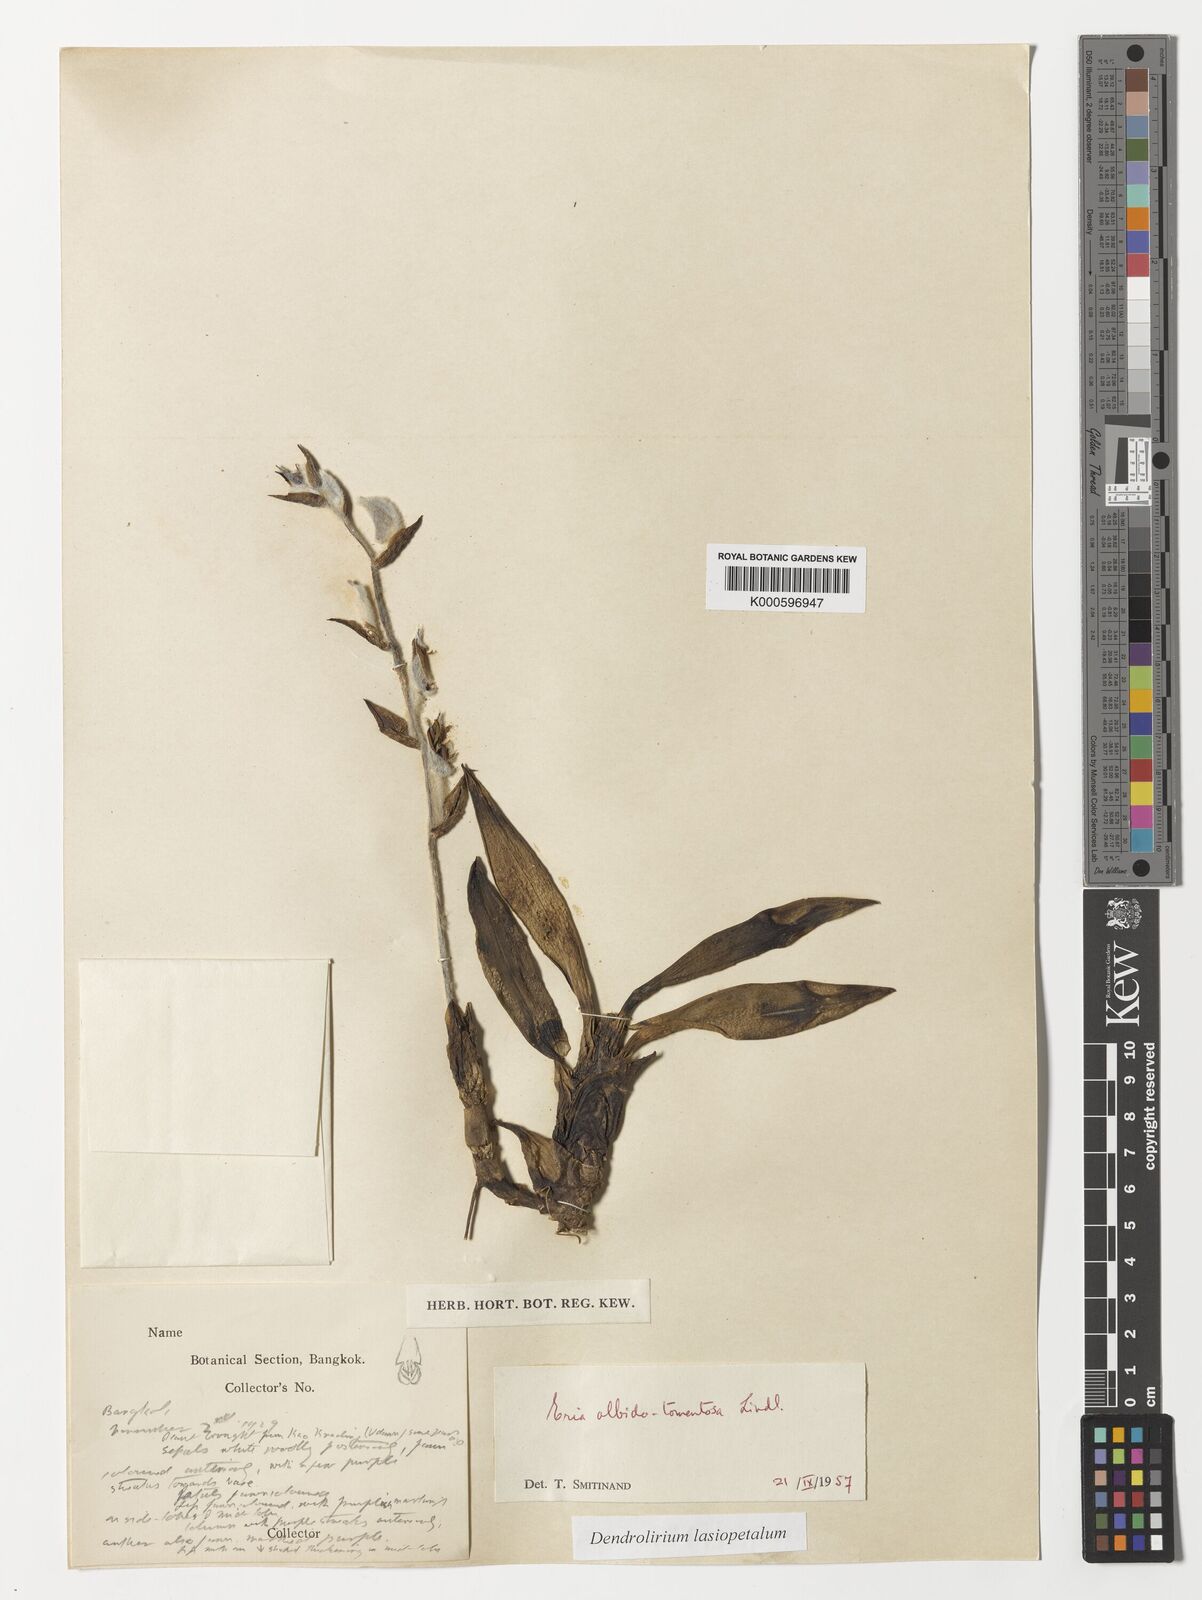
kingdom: Plantae
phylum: Tracheophyta
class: Liliopsida
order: Asparagales
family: Orchidaceae
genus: Dendrolirium
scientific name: Dendrolirium lasiopetalum
